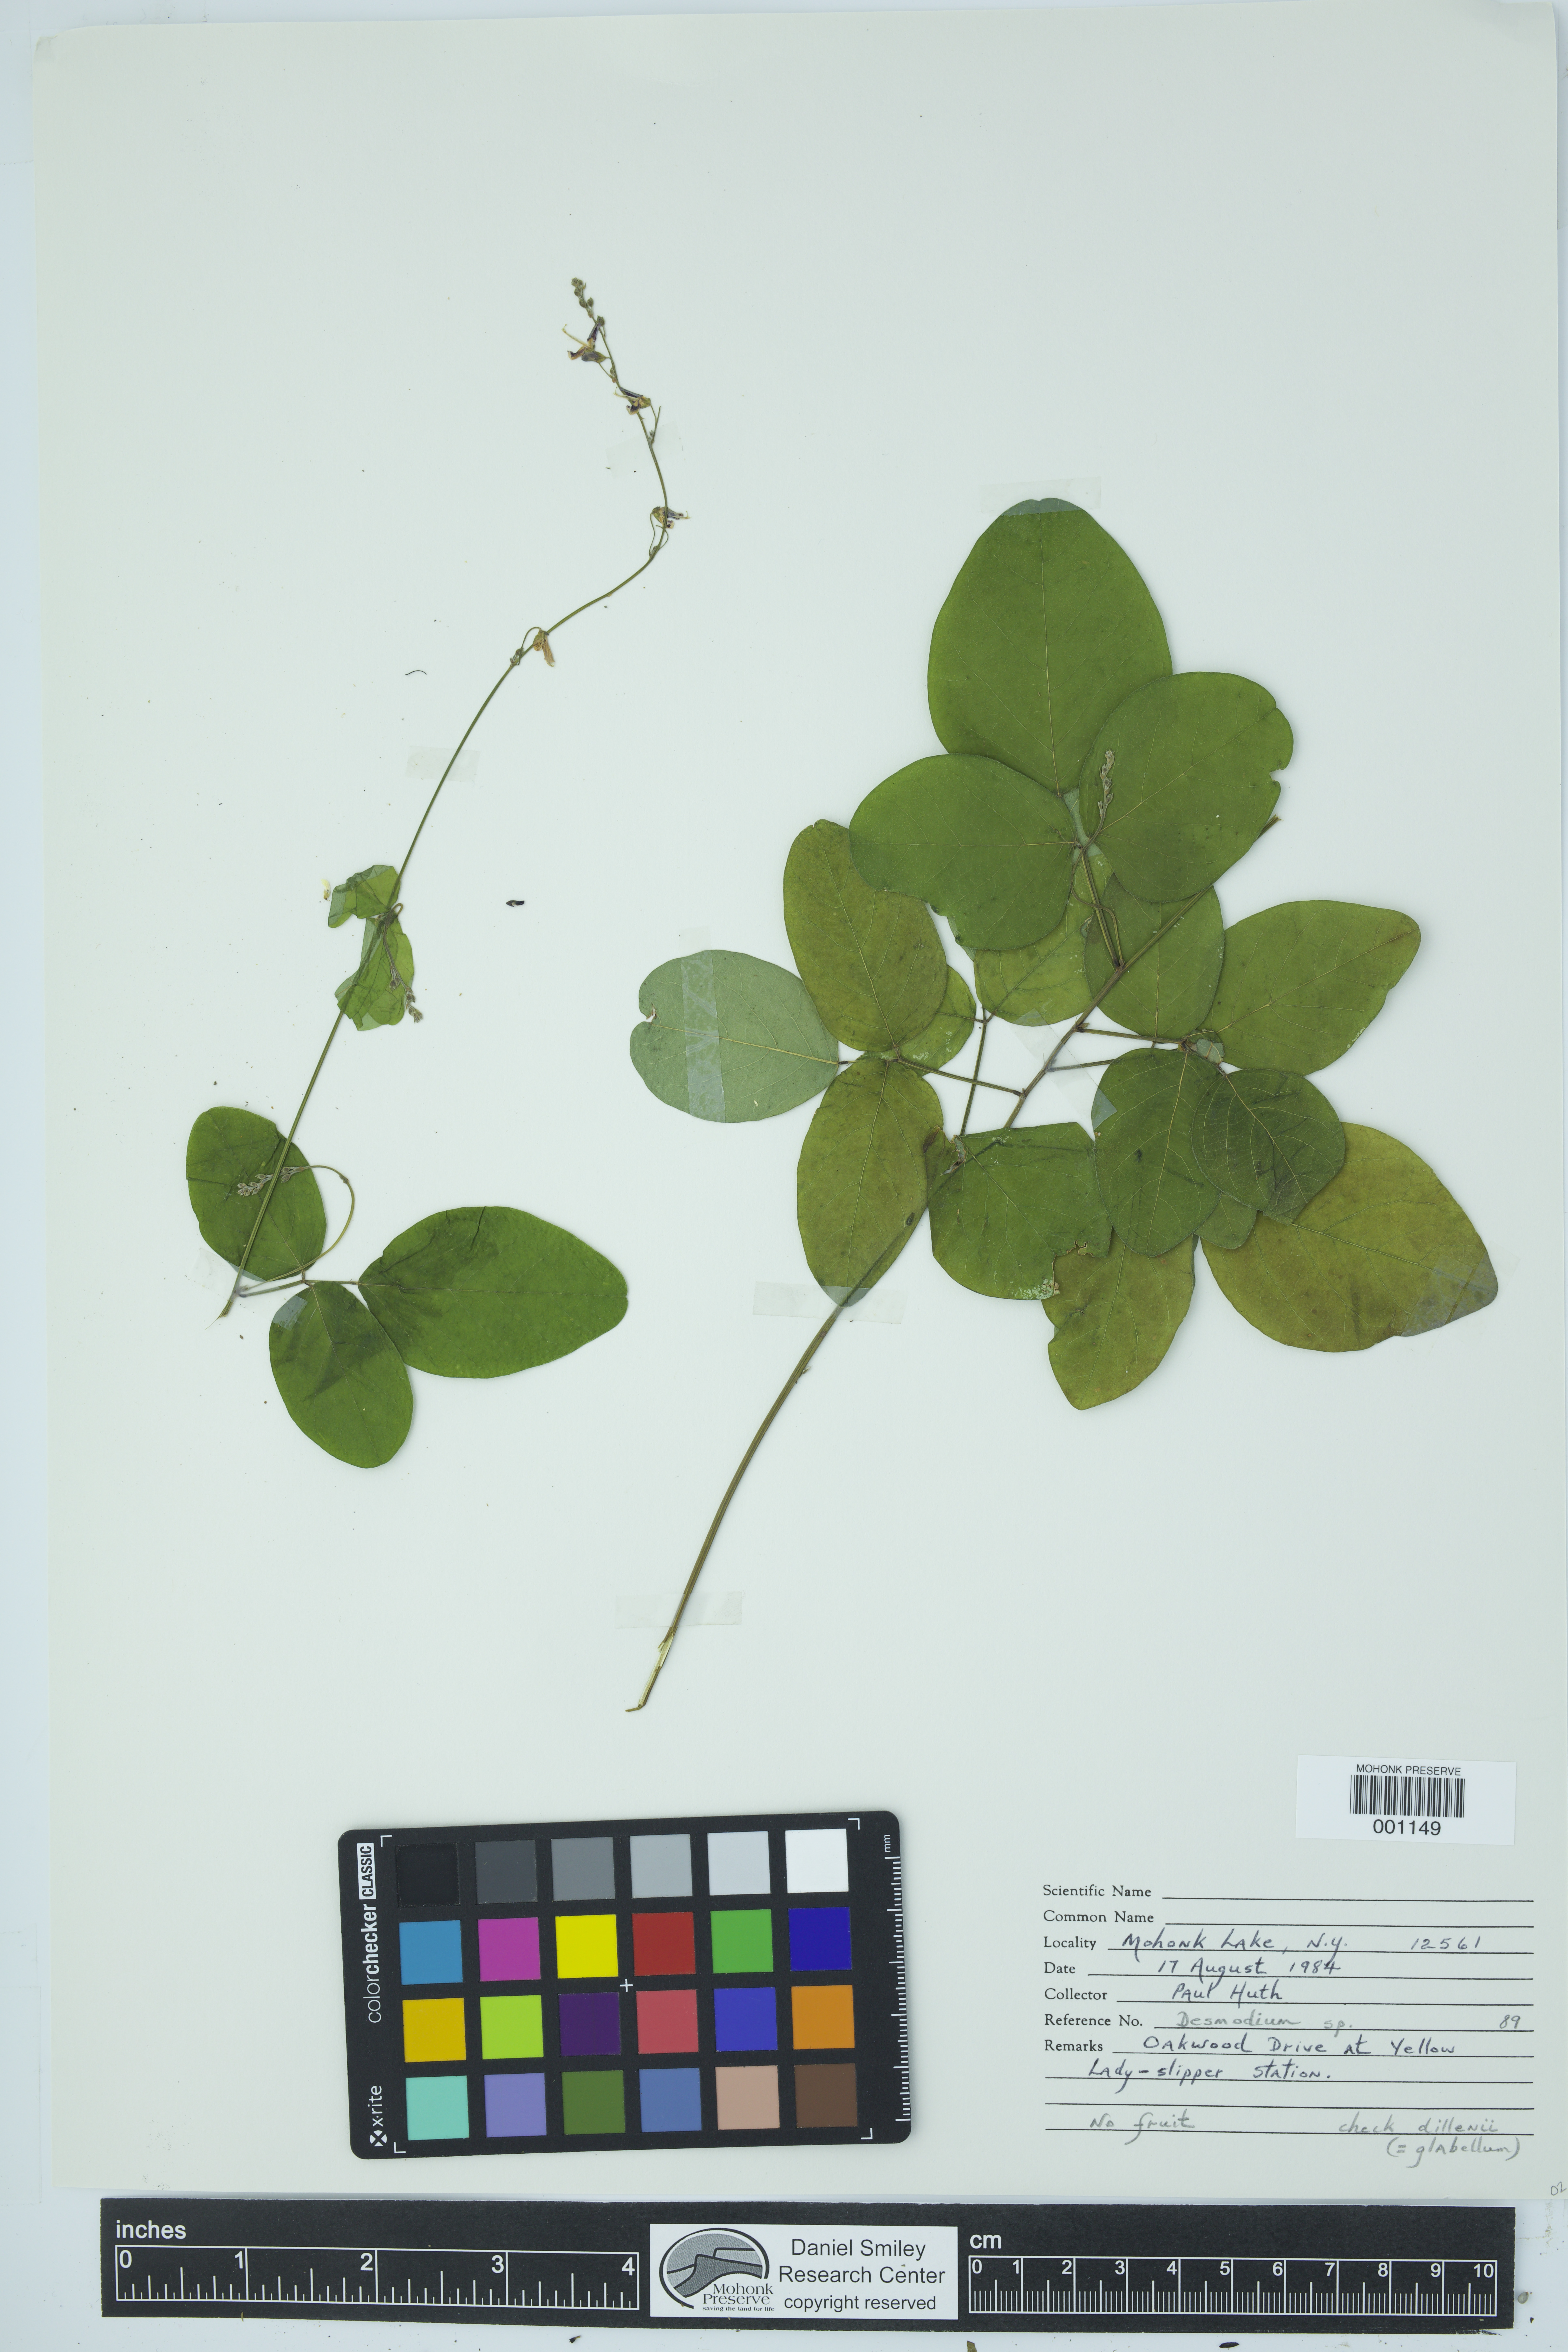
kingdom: Plantae
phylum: Tracheophyta
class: Magnoliopsida
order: Fabales
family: Fabaceae
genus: Desmodium
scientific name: Desmodium
